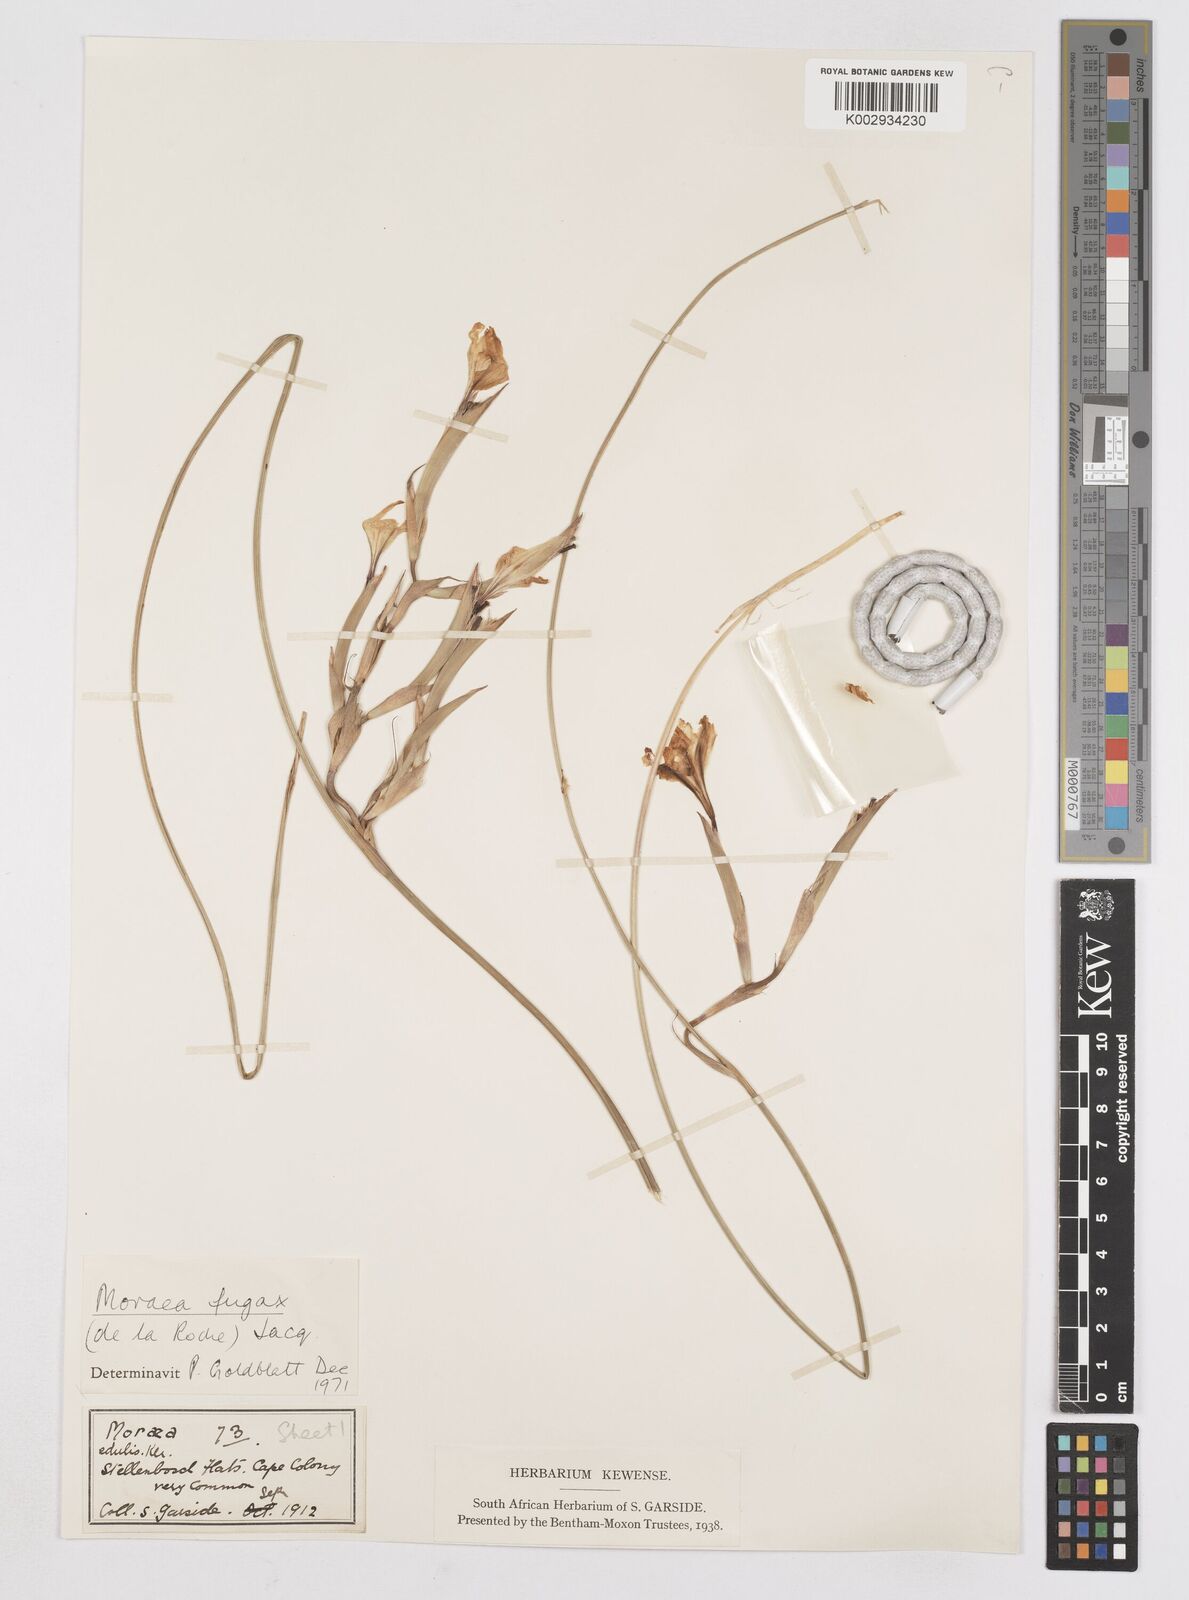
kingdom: Plantae
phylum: Tracheophyta
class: Liliopsida
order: Asparagales
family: Iridaceae
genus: Moraea
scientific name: Moraea fugax
